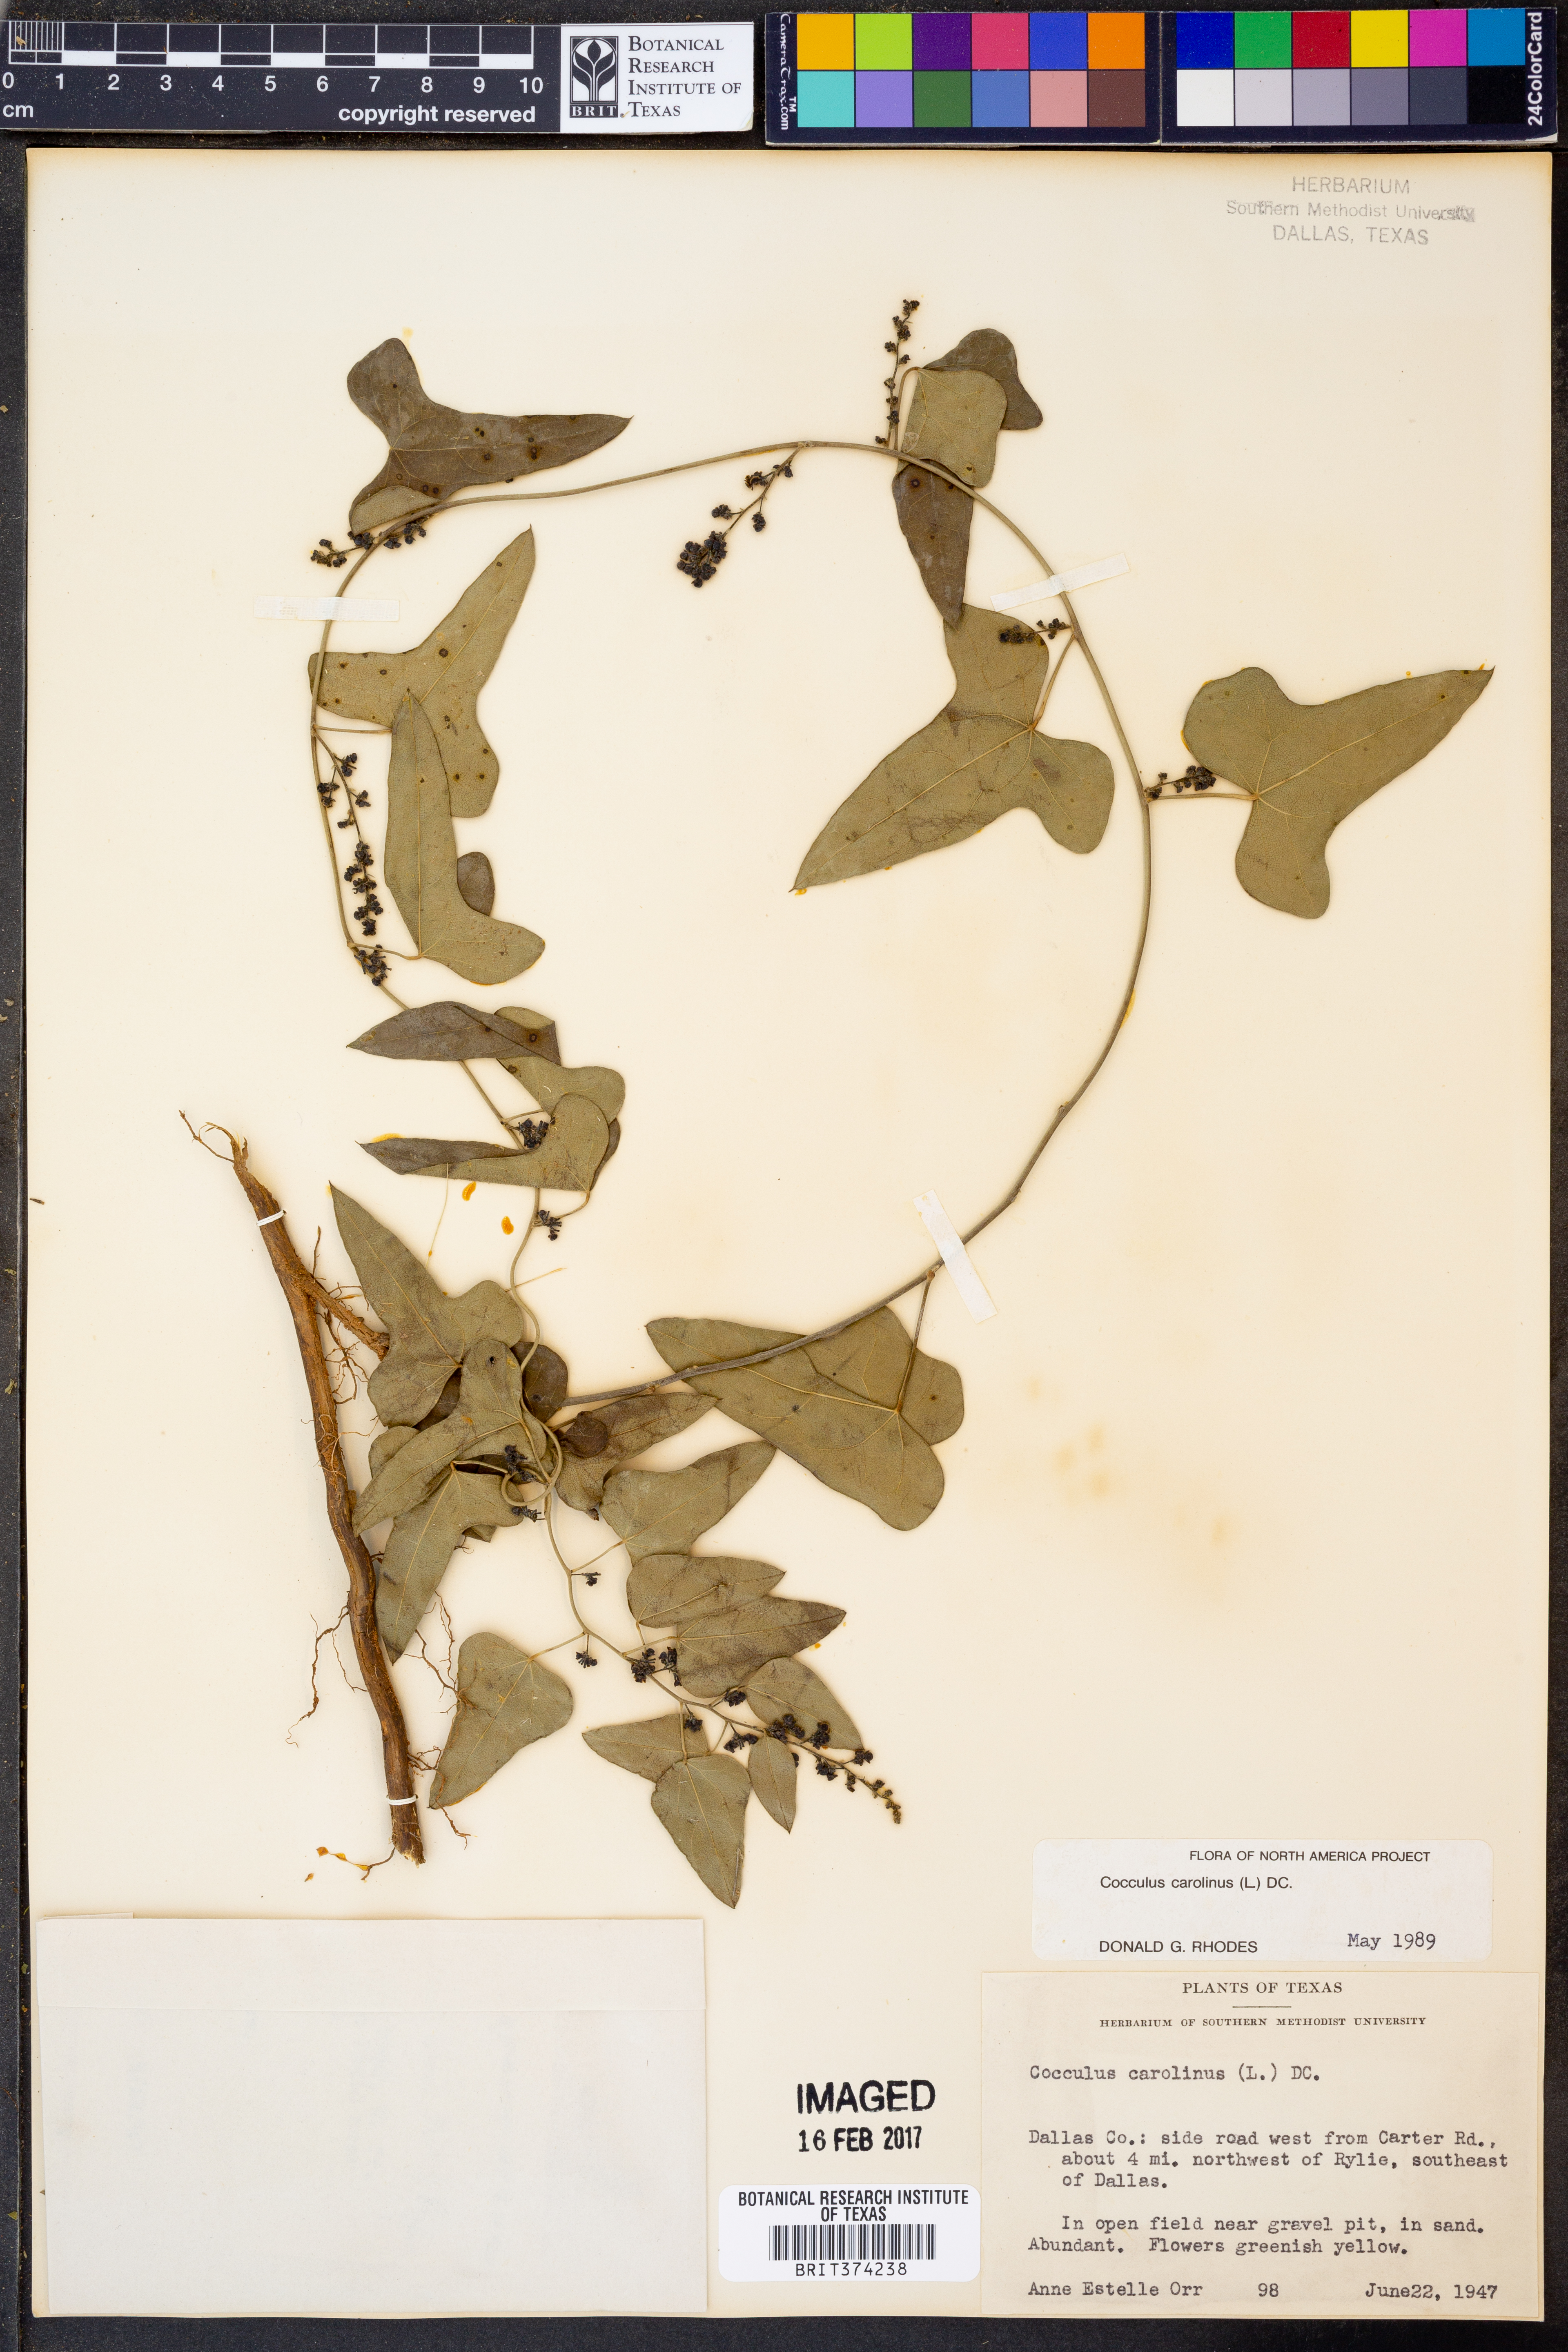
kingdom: Plantae
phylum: Tracheophyta
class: Magnoliopsida
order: Ranunculales
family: Menispermaceae
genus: Cocculus
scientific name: Cocculus carolinus
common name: Carolina moonseed
